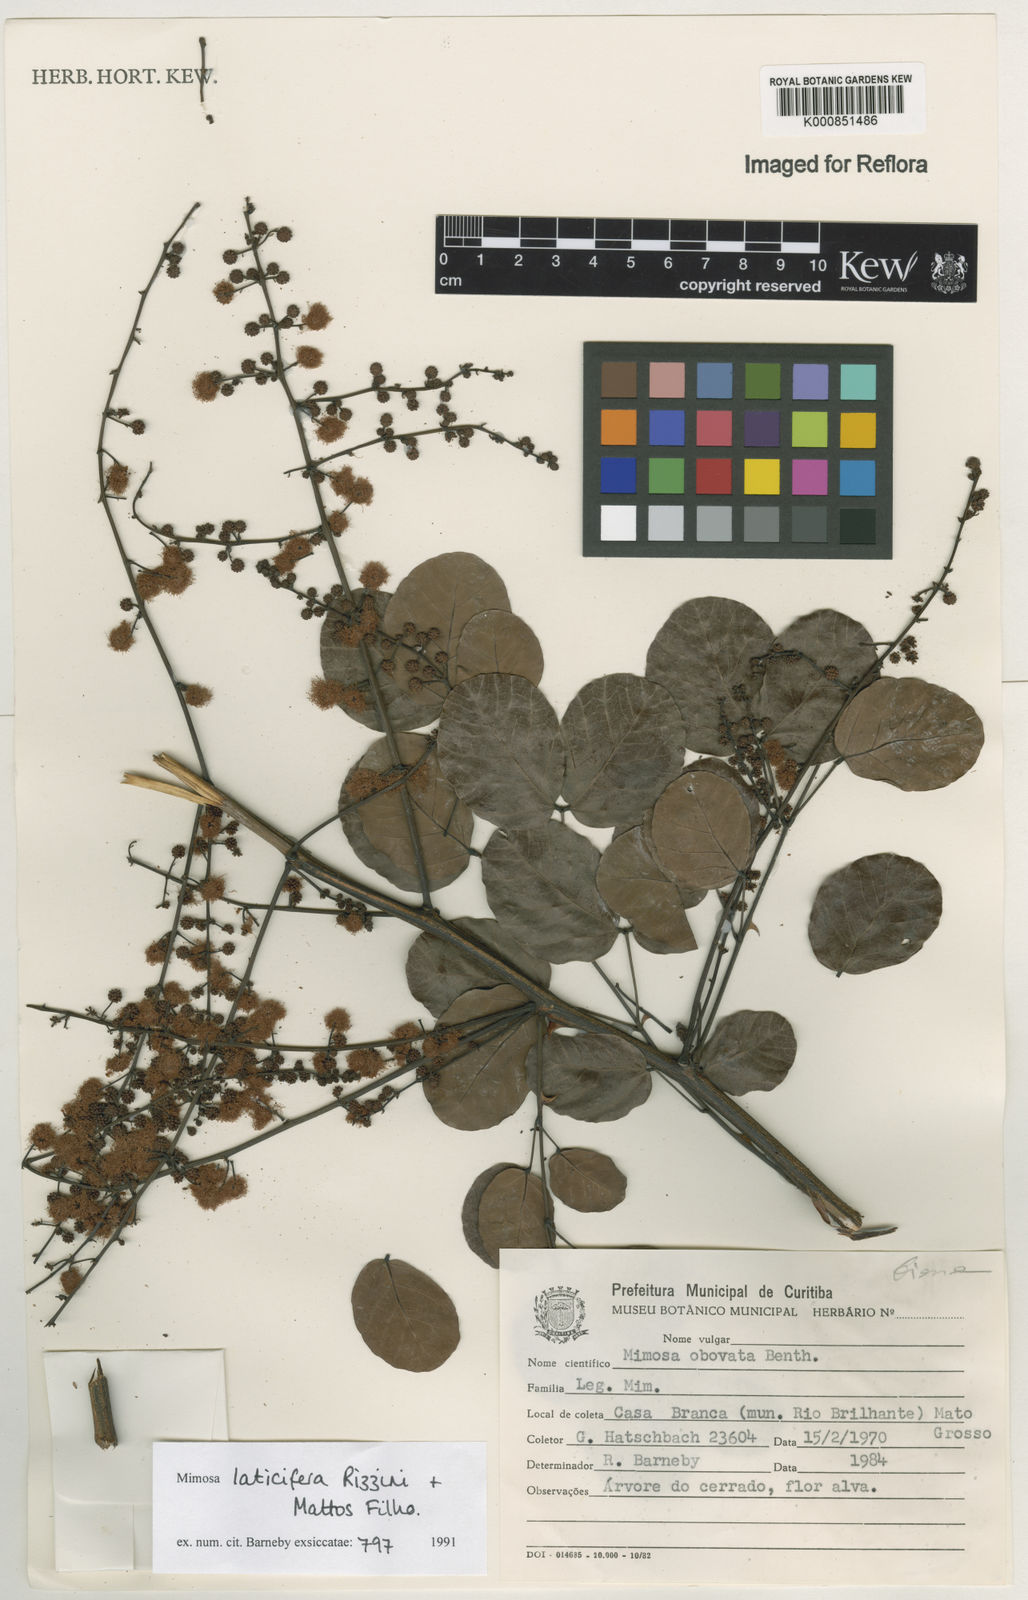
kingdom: Plantae
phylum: Tracheophyta
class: Magnoliopsida
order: Fabales
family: Fabaceae
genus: Mimosa
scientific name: Mimosa laticifera
